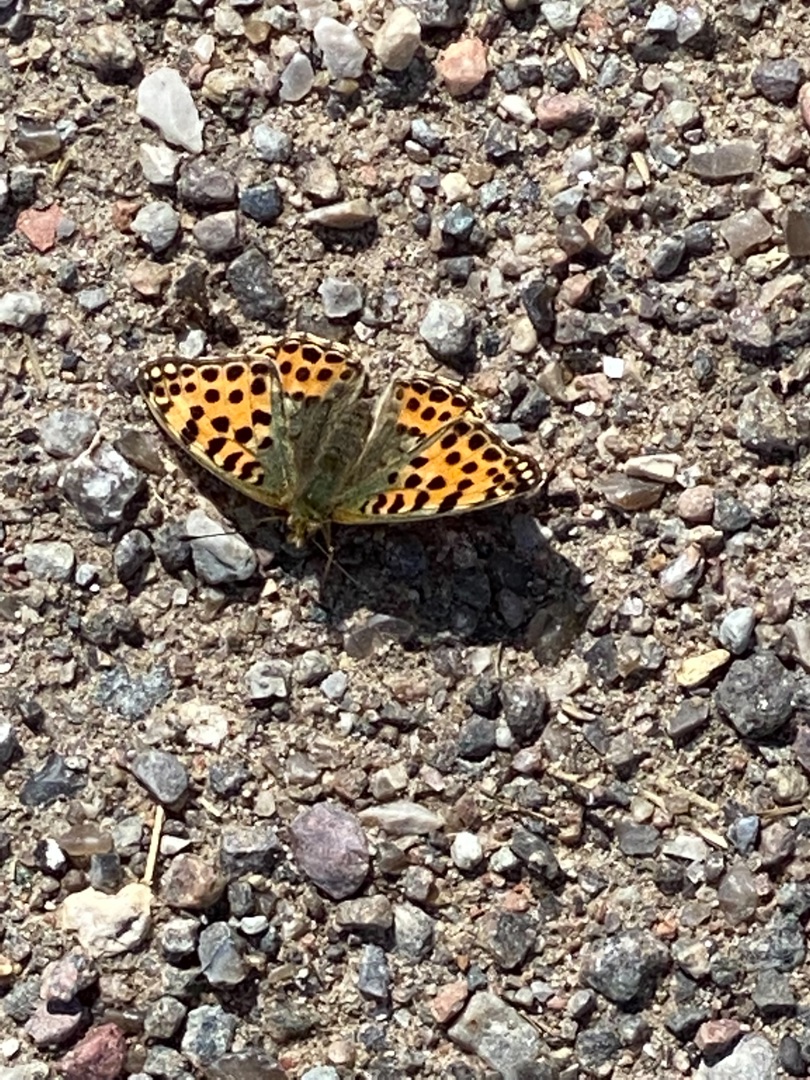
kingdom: Animalia
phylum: Arthropoda
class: Insecta
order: Lepidoptera
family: Nymphalidae
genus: Issoria
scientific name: Issoria lathonia
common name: Storplettet perlemorsommerfugl
